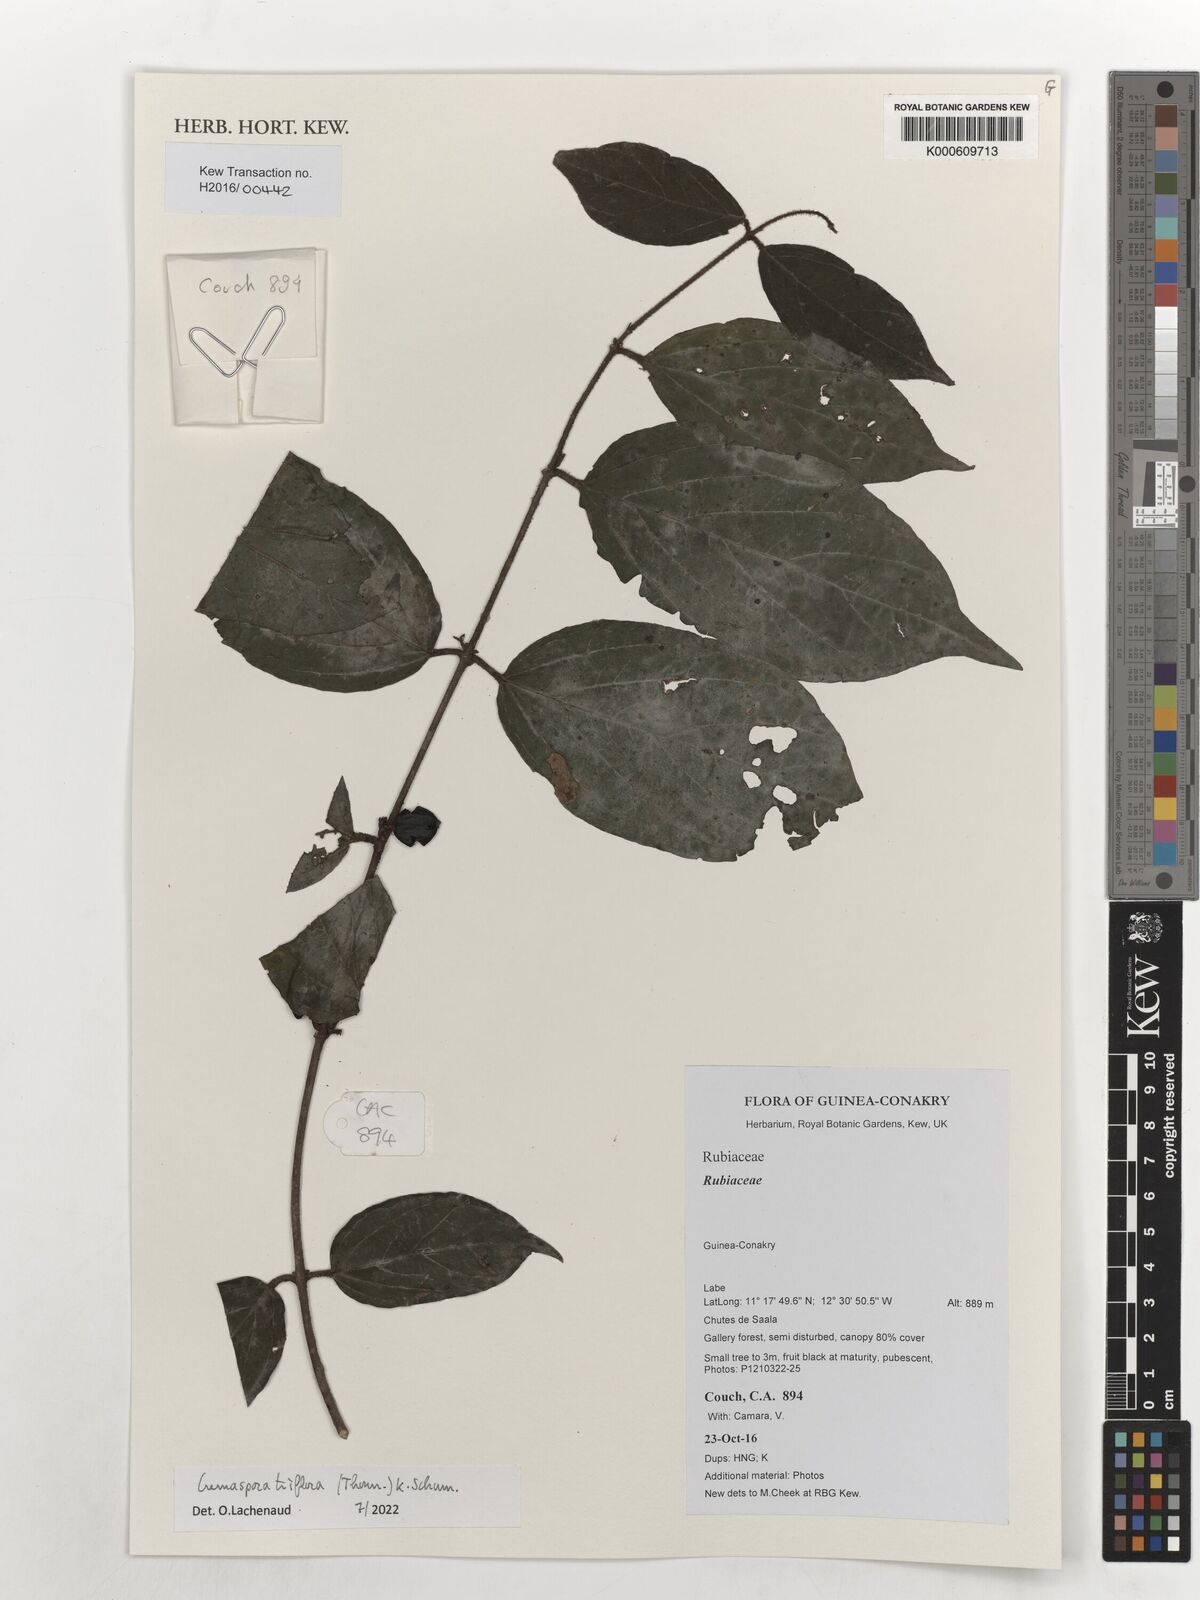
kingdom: Plantae
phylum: Tracheophyta
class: Magnoliopsida
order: Gentianales
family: Rubiaceae
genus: Cremaspora
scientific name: Cremaspora triflora
